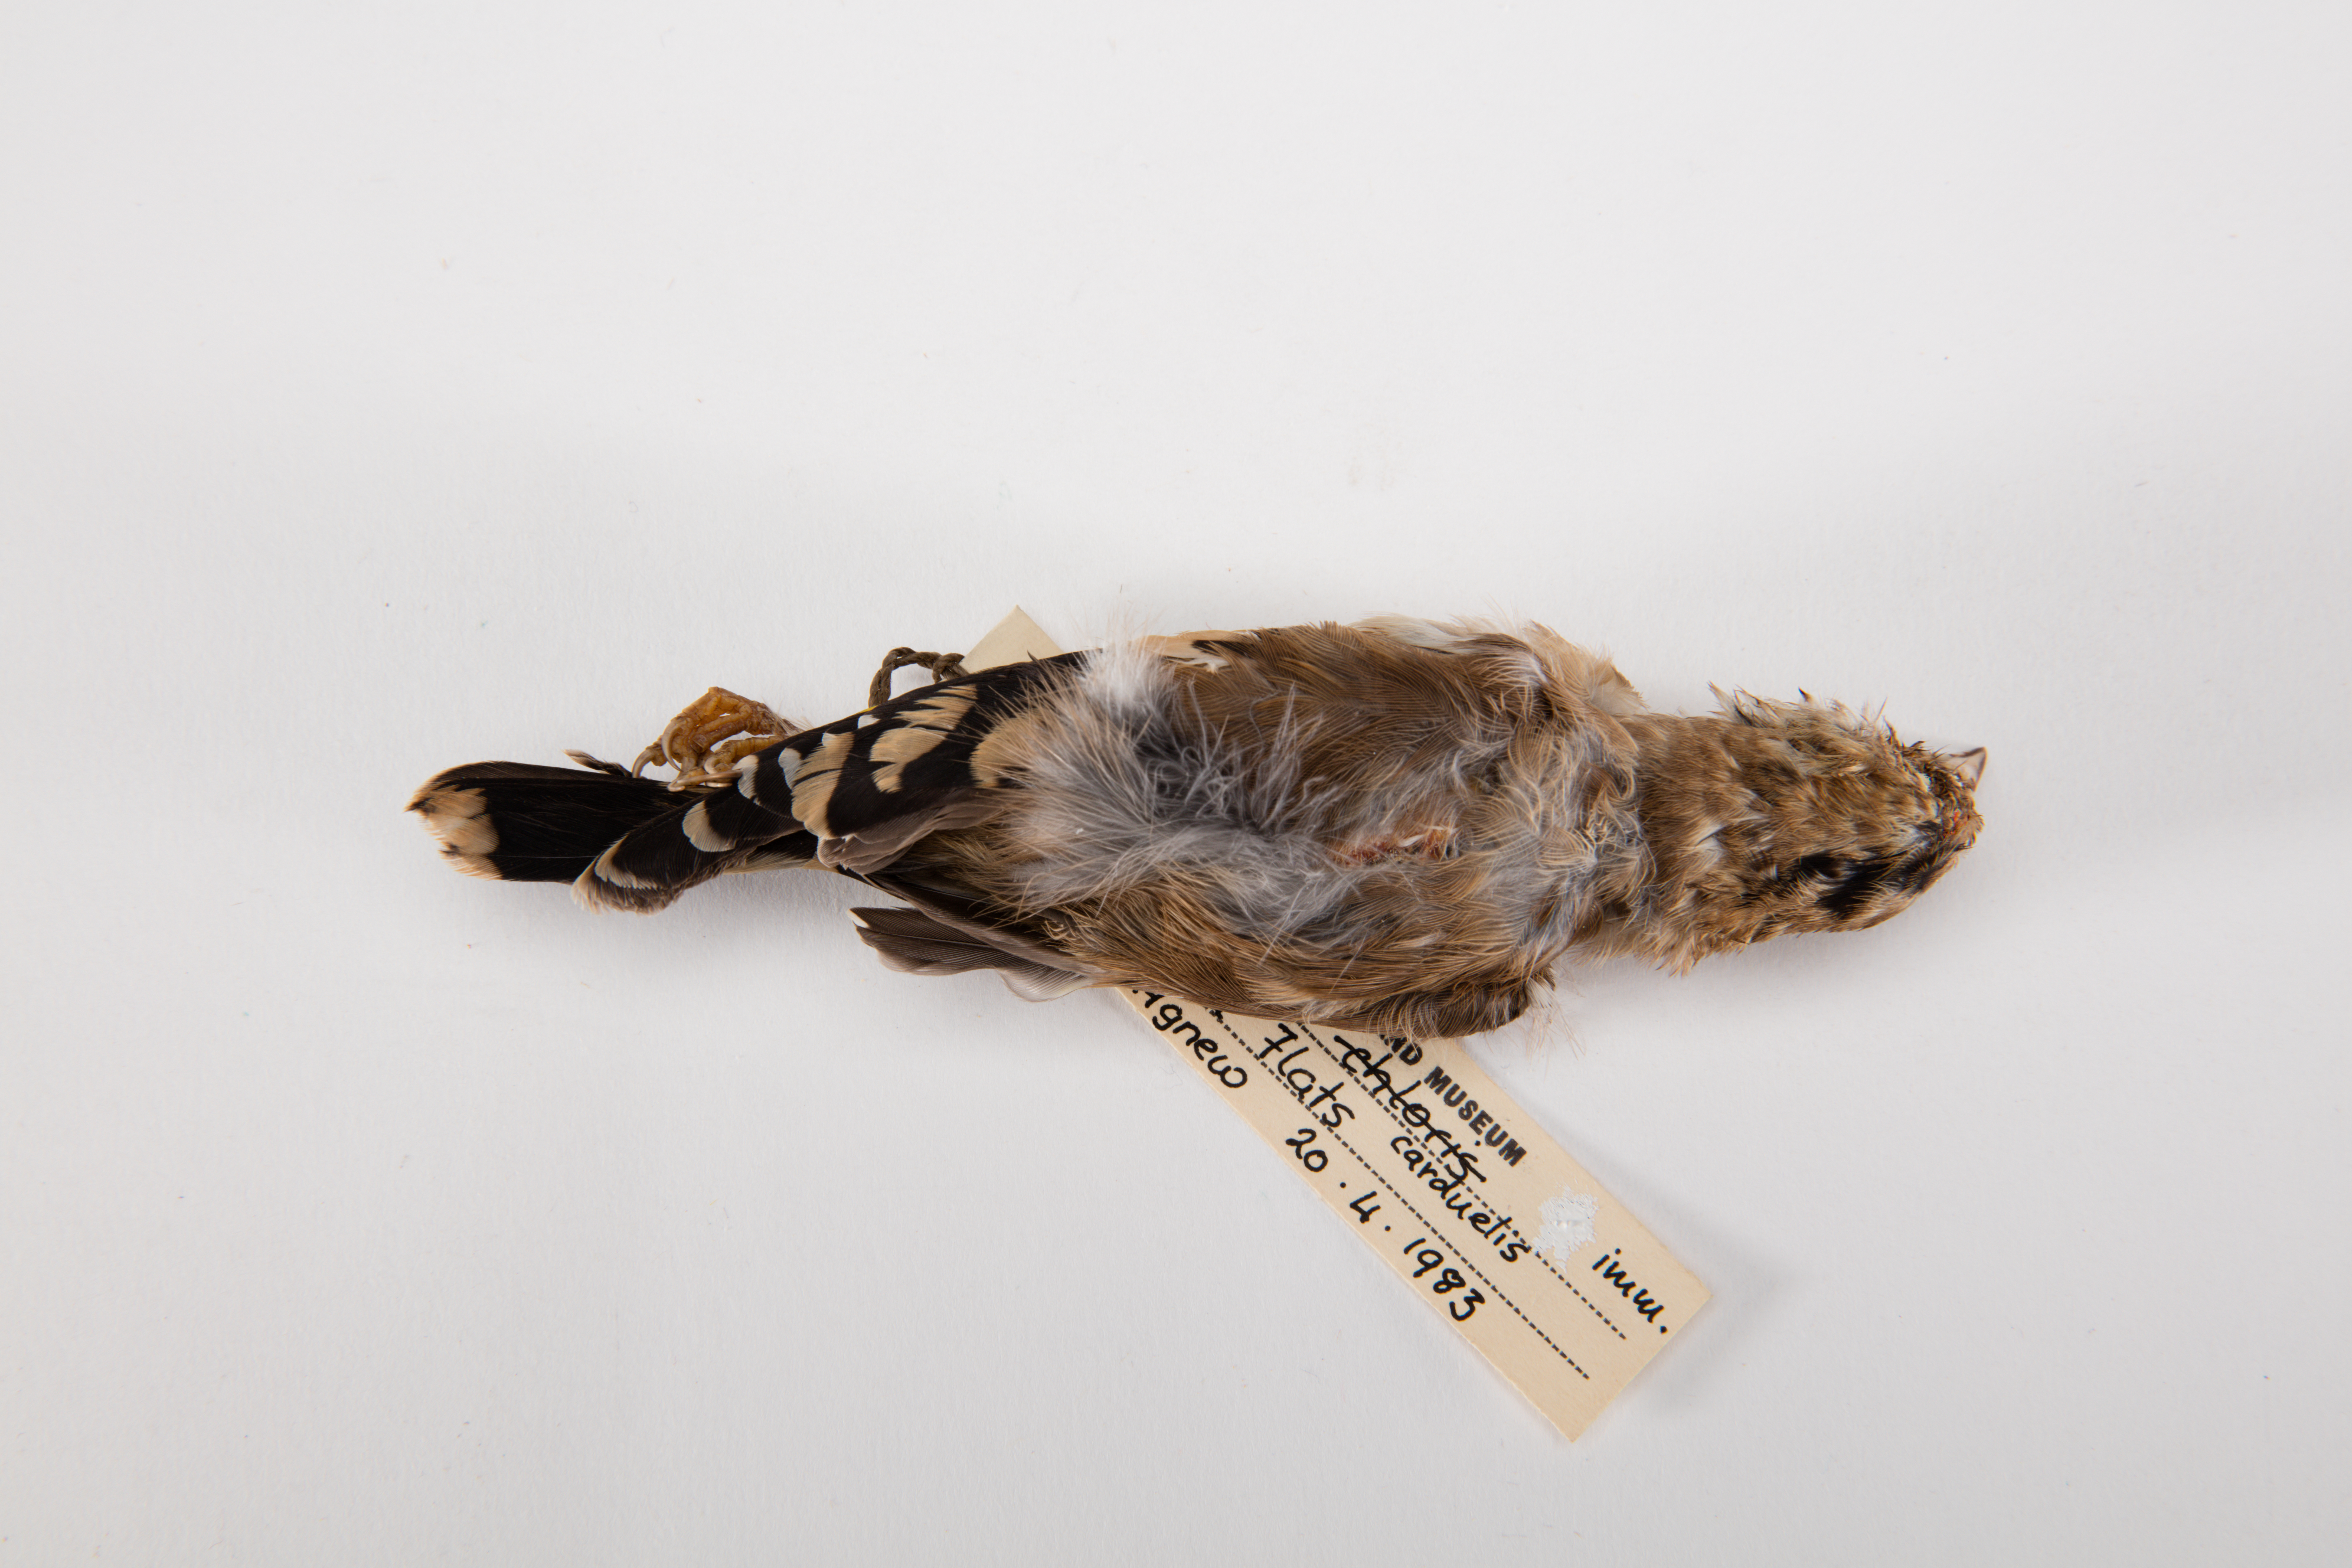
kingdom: Animalia
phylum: Chordata
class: Aves
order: Passeriformes
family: Fringillidae
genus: Carduelis
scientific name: Carduelis carduelis
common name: European goldfinch
